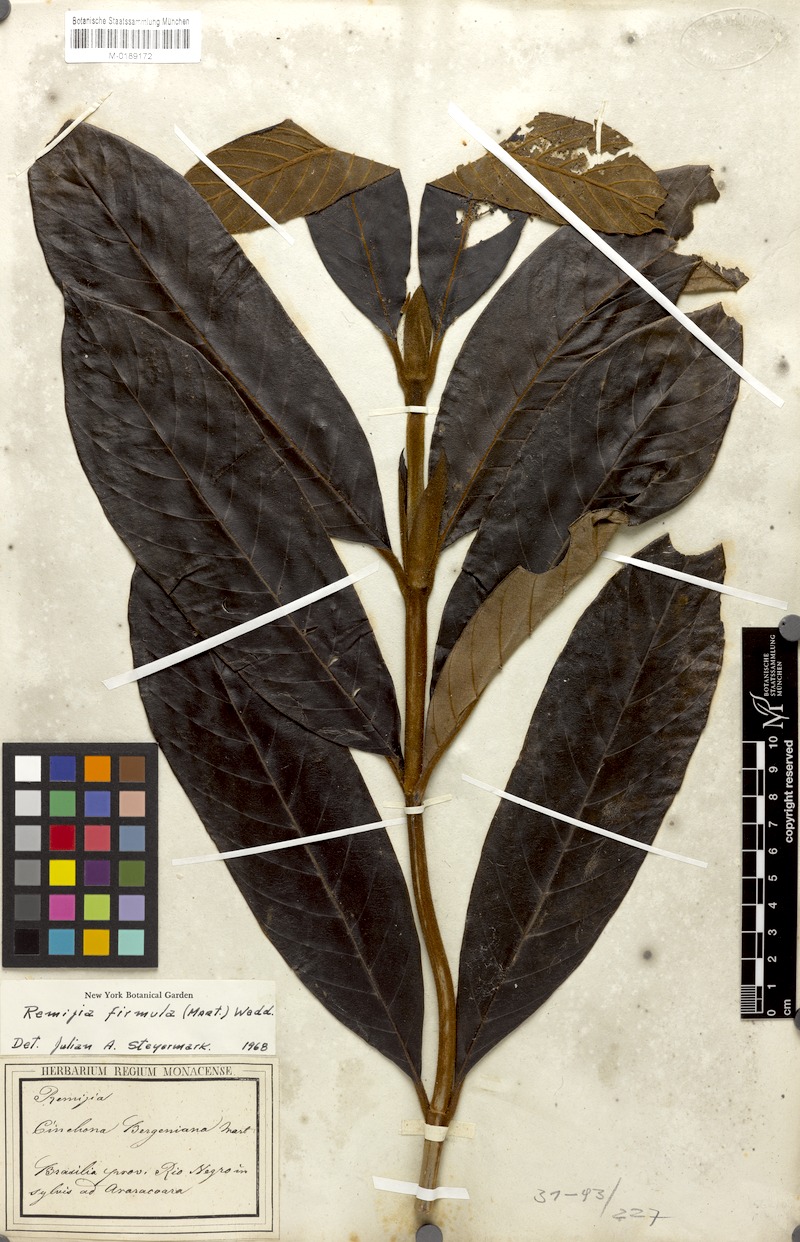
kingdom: Plantae
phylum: Tracheophyta
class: Magnoliopsida
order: Gentianales
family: Rubiaceae
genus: Remijia
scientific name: Remijia firmula
